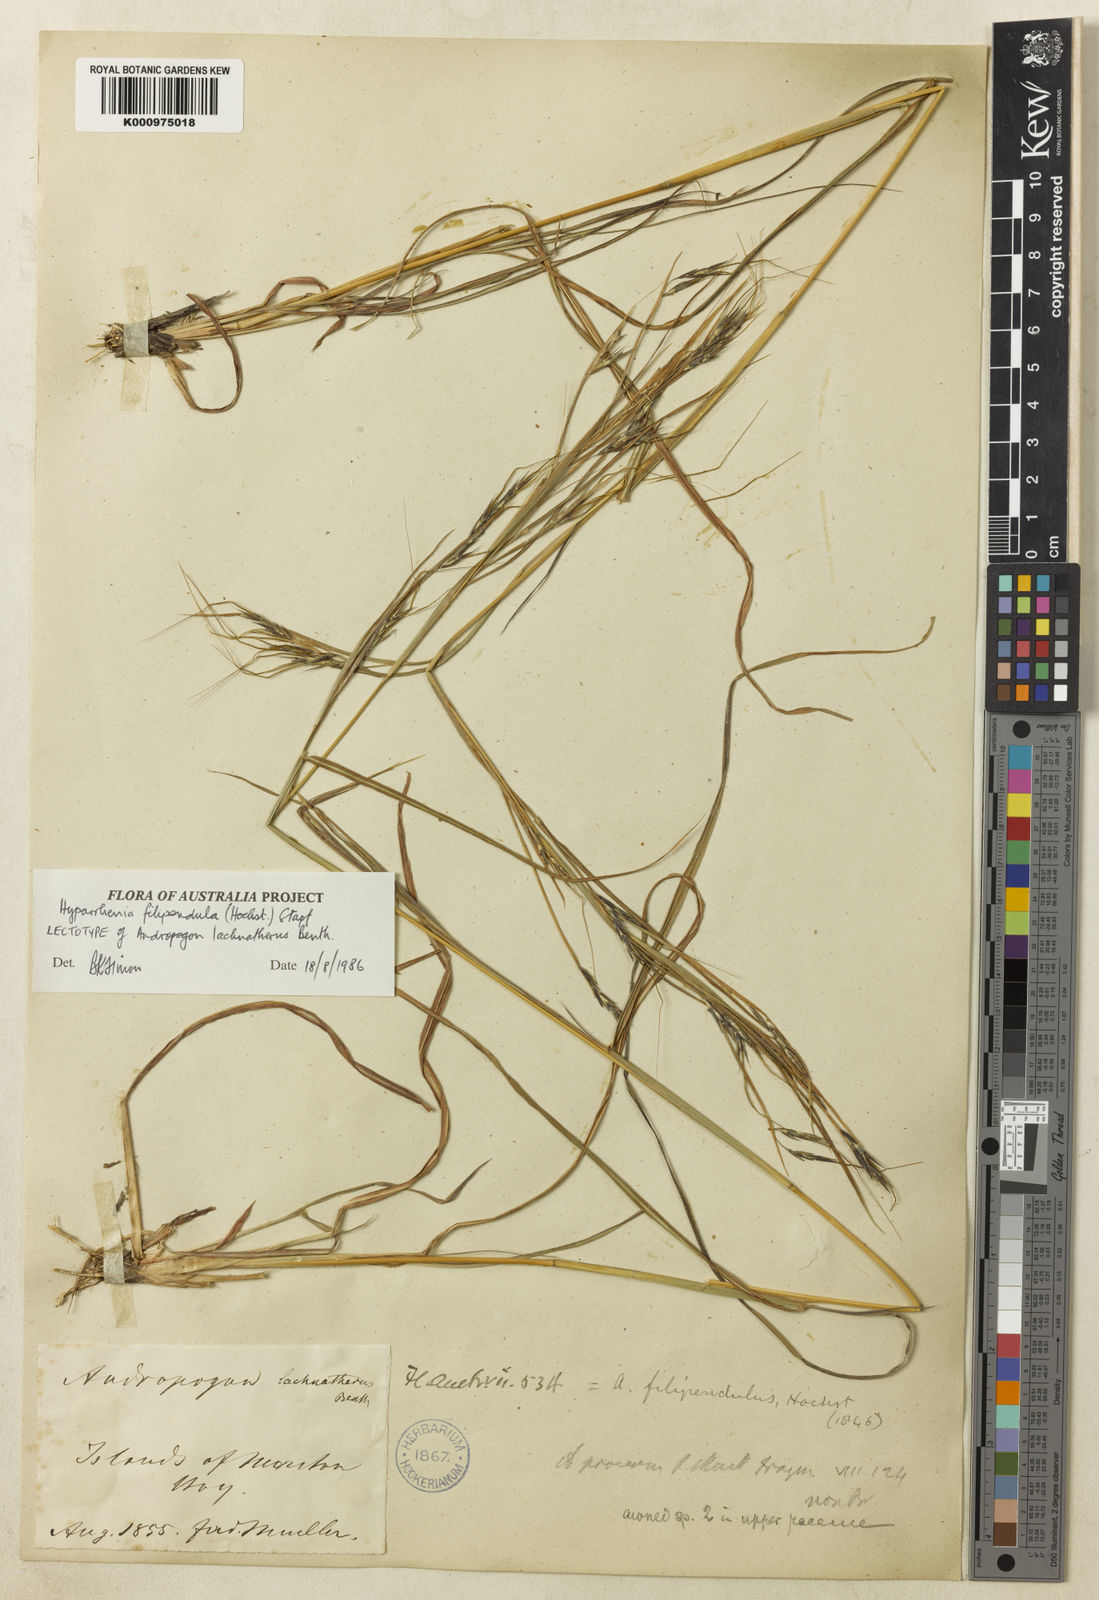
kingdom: Plantae
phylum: Tracheophyta
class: Liliopsida
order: Poales
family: Poaceae
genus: Hyparrhenia
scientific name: Hyparrhenia filipendula
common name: Tambookie grass
